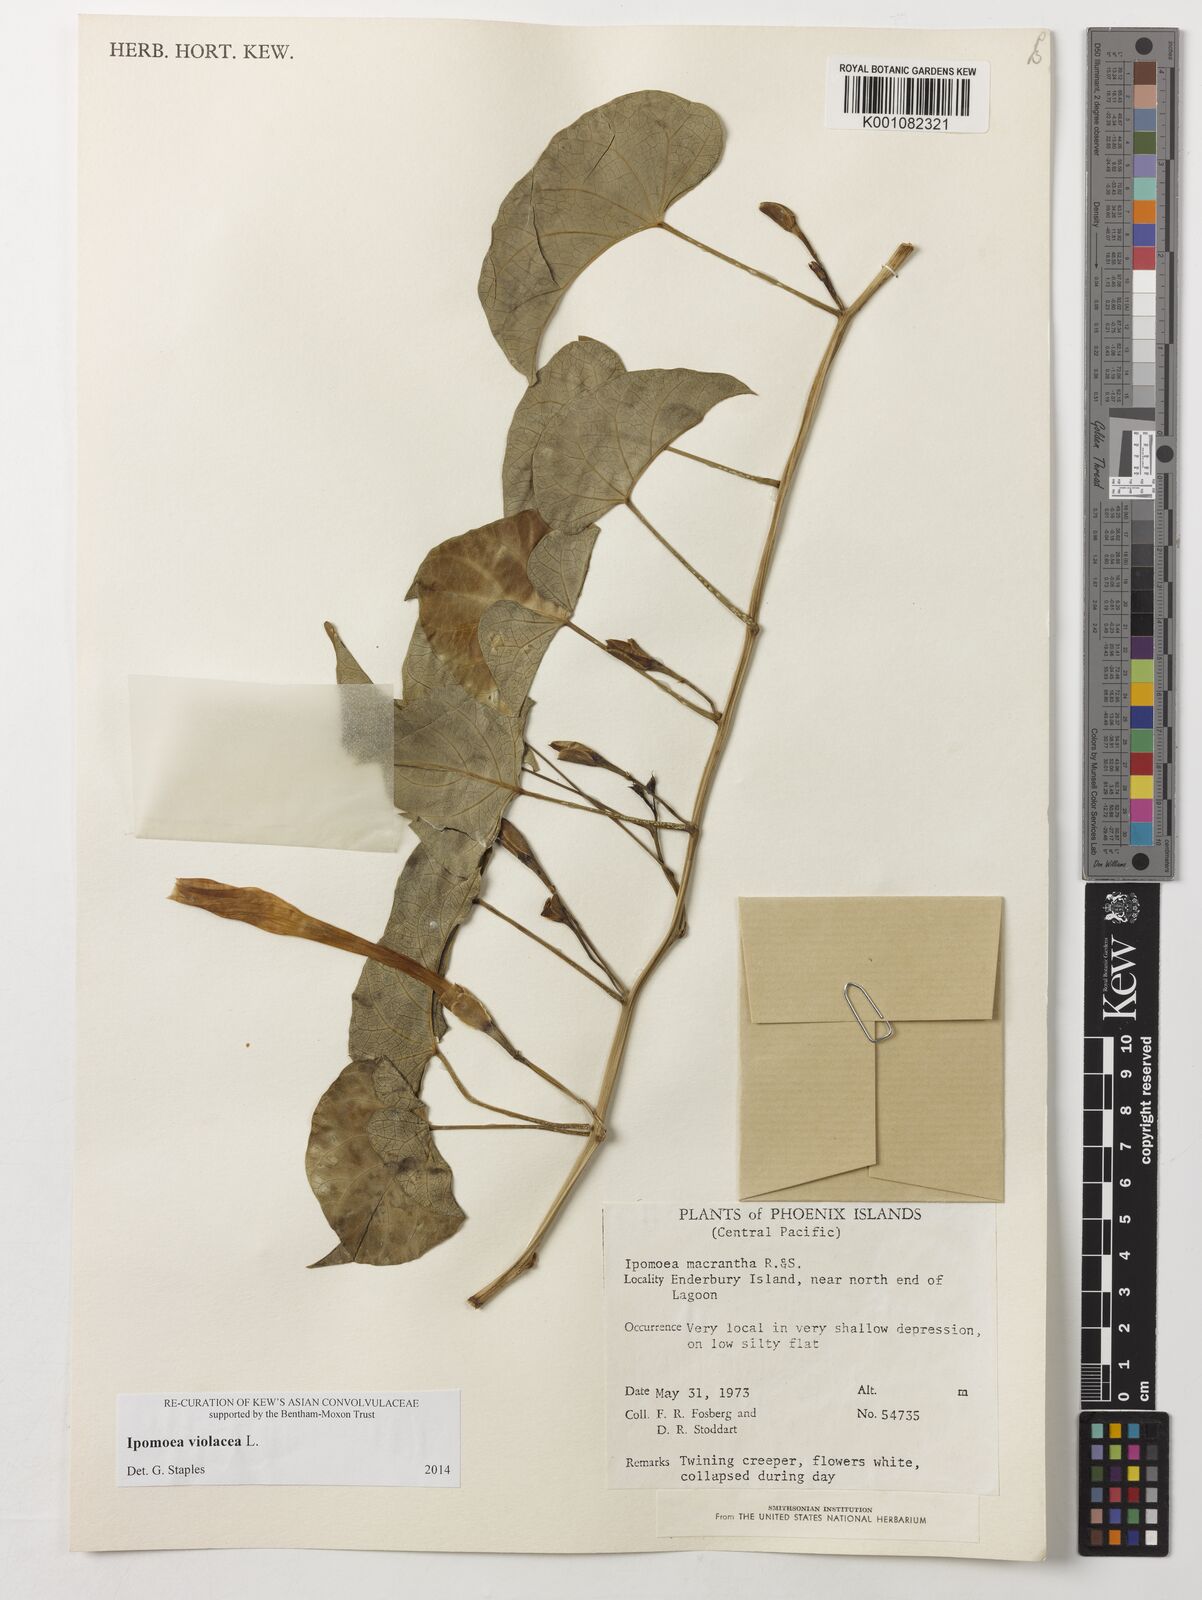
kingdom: Plantae
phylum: Tracheophyta
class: Magnoliopsida
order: Solanales
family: Convolvulaceae
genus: Ipomoea
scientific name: Ipomoea violacea
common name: Beach moonflower
